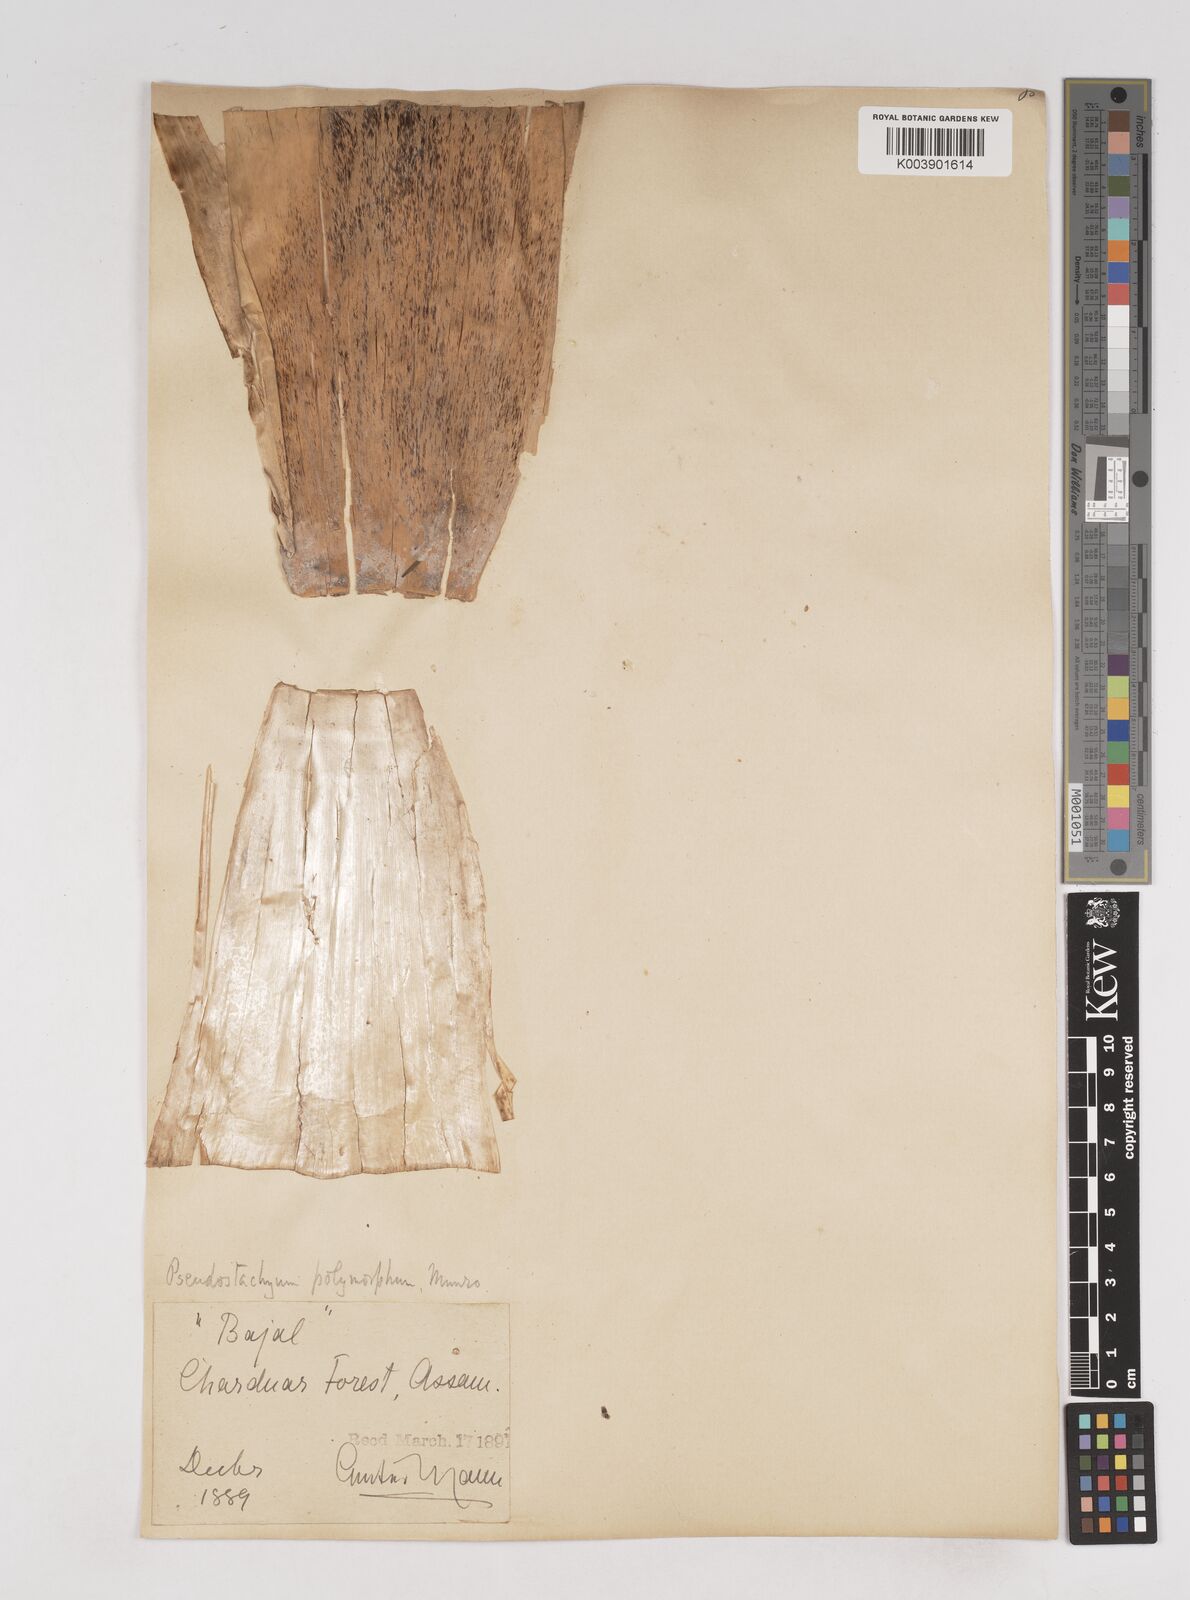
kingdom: Plantae
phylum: Tracheophyta
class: Liliopsida
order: Poales
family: Poaceae
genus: Pseudostachyum
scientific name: Pseudostachyum polymorphum
